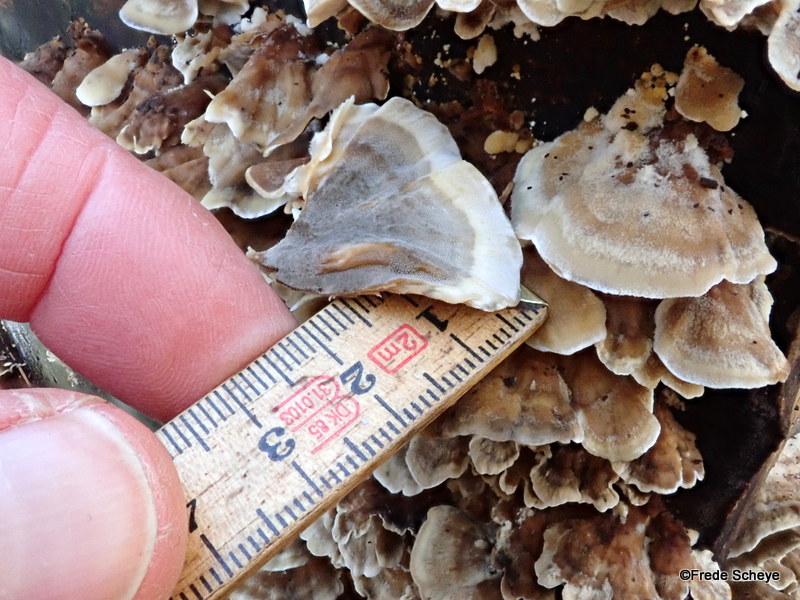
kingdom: Fungi
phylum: Basidiomycota
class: Agaricomycetes
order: Polyporales
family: Phanerochaetaceae
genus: Bjerkandera
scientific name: Bjerkandera adusta
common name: sveden sodporesvamp
